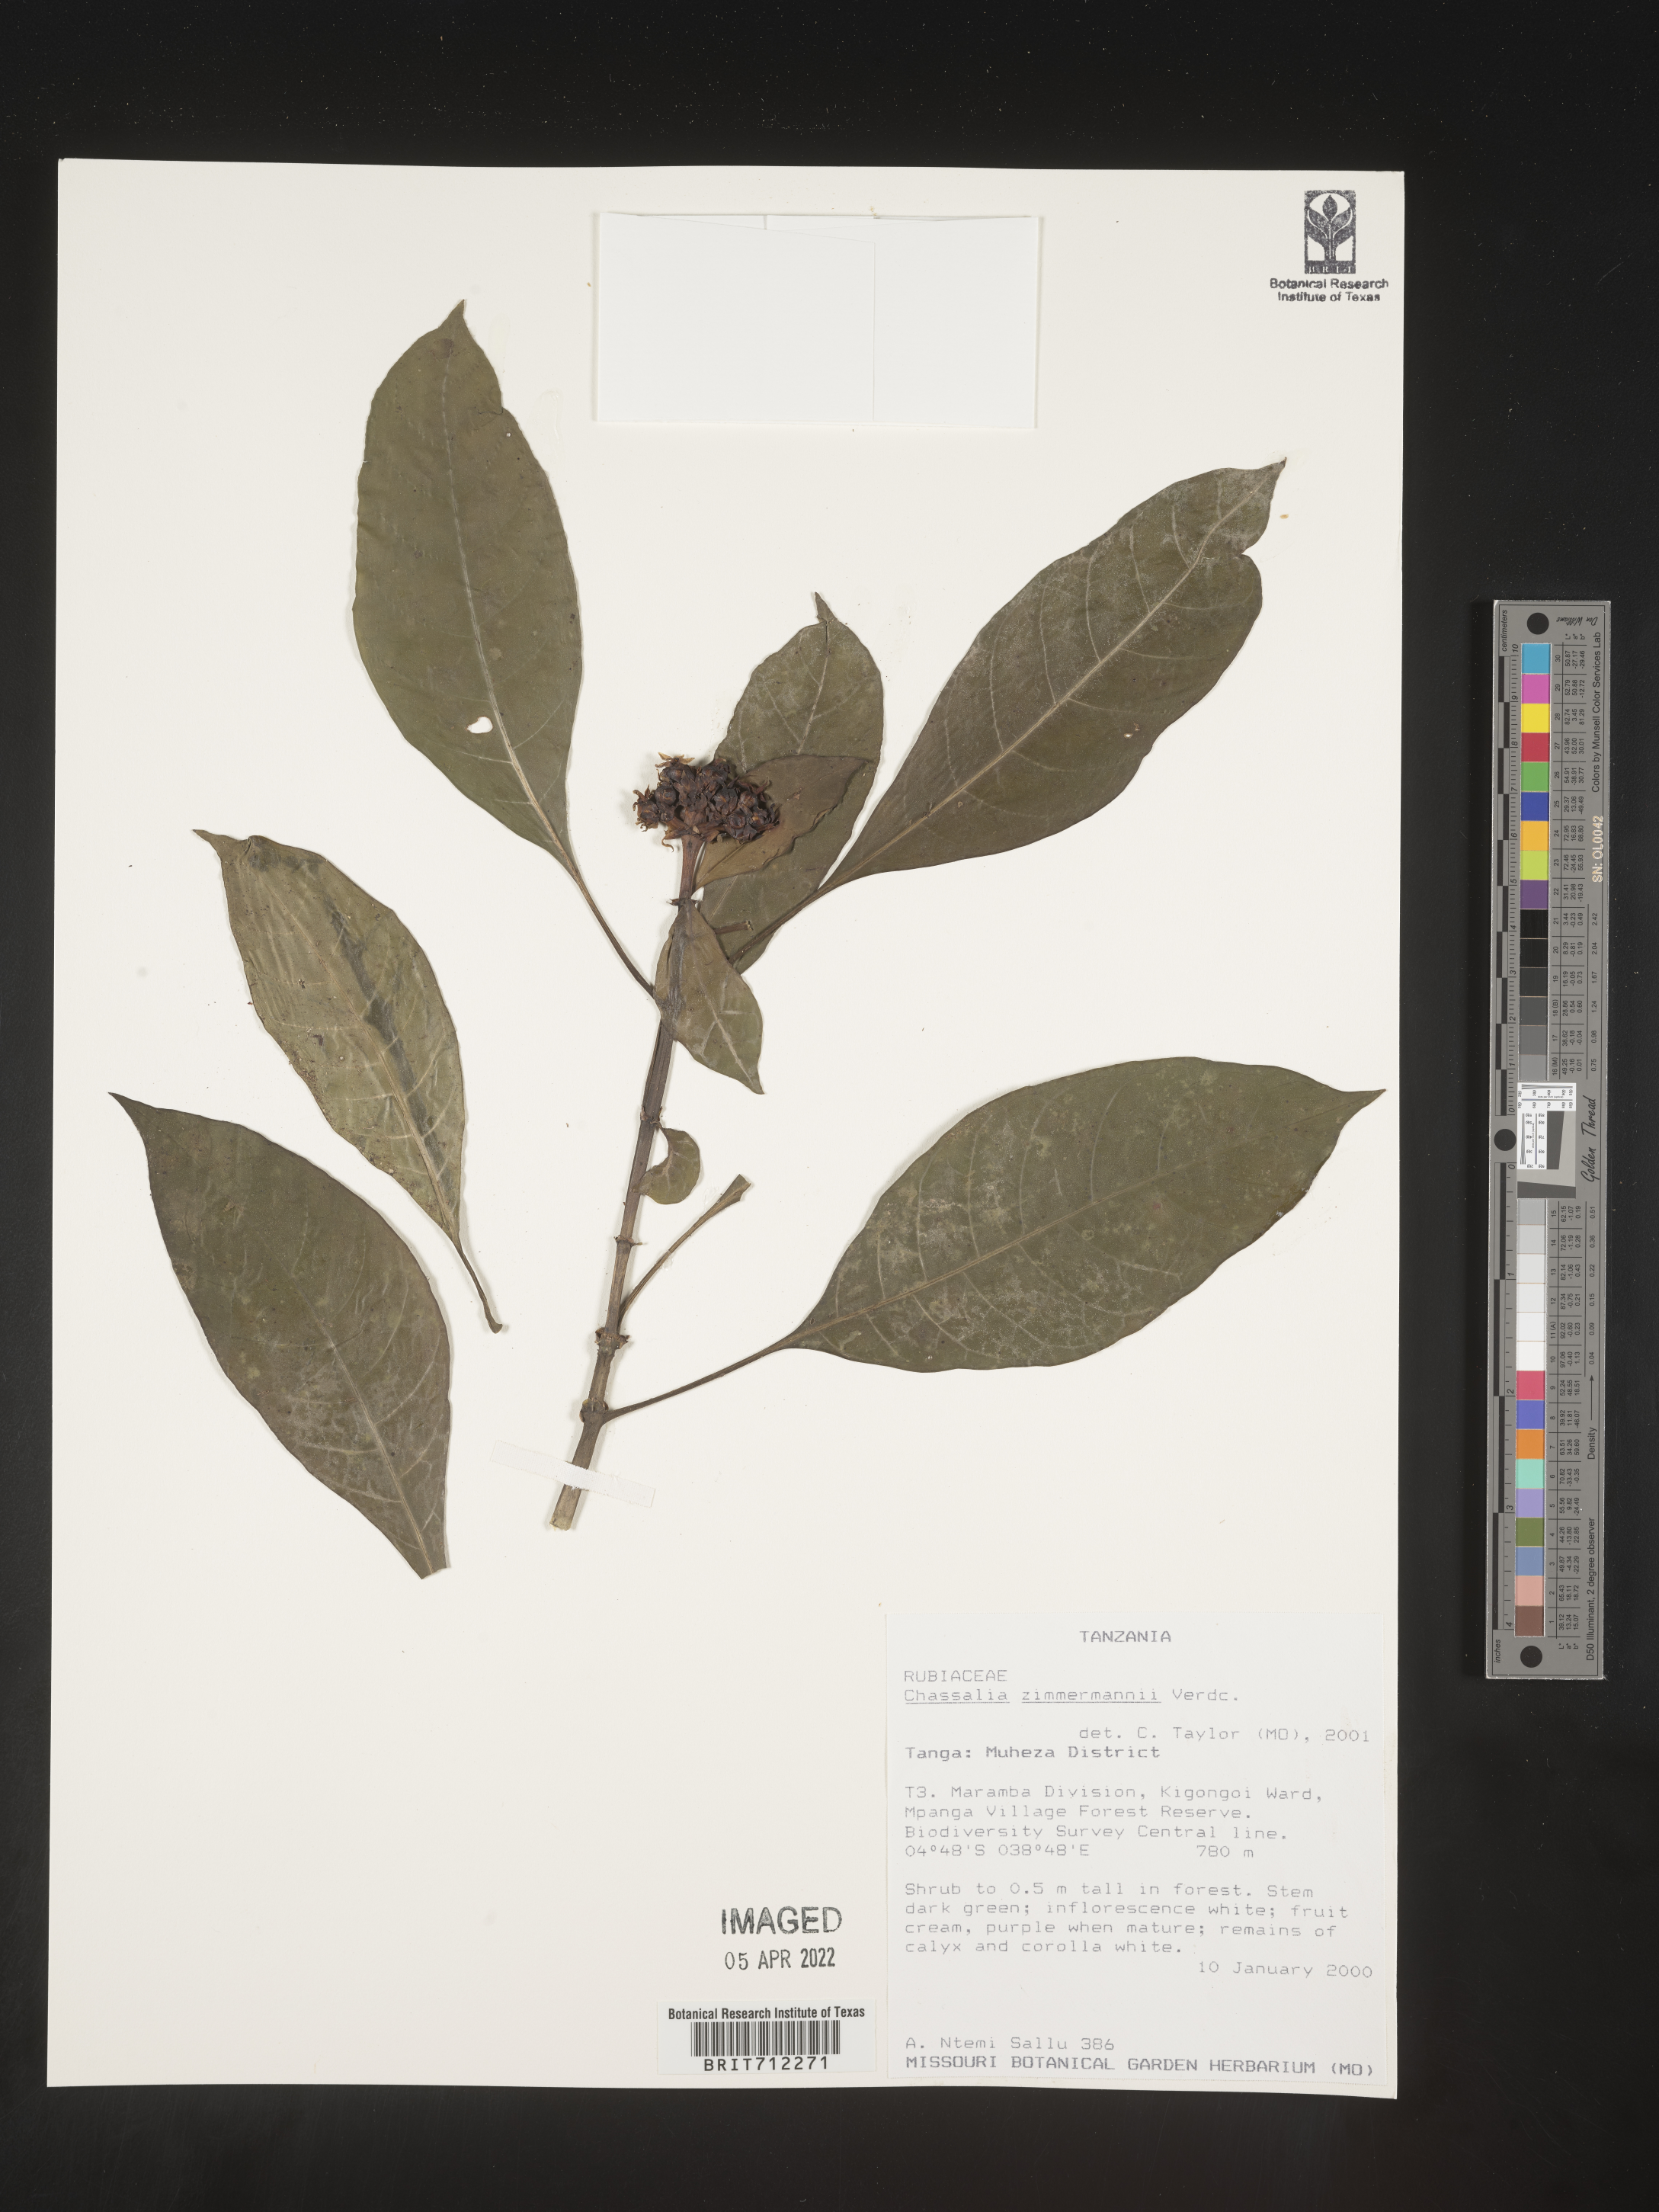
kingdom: Plantae
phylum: Tracheophyta
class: Magnoliopsida
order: Gentianales
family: Rubiaceae
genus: Chassalia
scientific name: Chassalia
